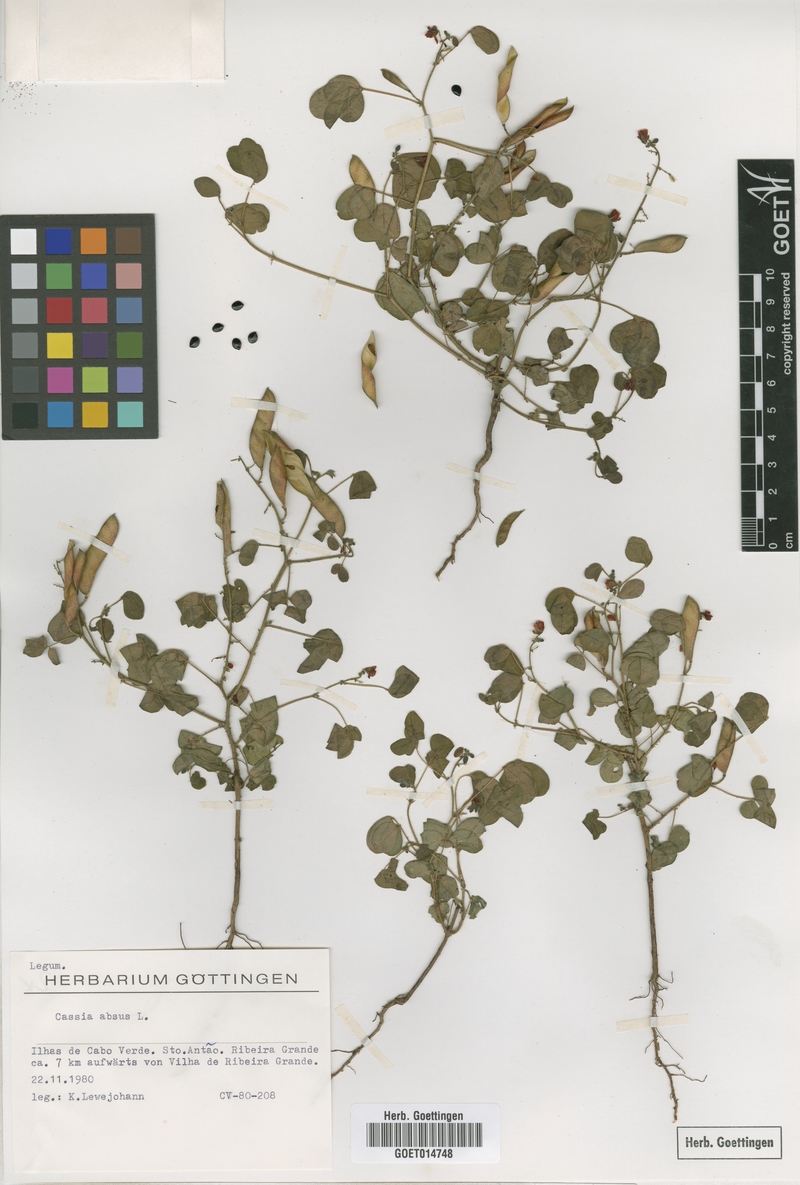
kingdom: Plantae
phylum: Tracheophyta
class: Magnoliopsida
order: Fabales
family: Fabaceae
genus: Chamaecrista
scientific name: Chamaecrista absus
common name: Tropical sensitive pea
